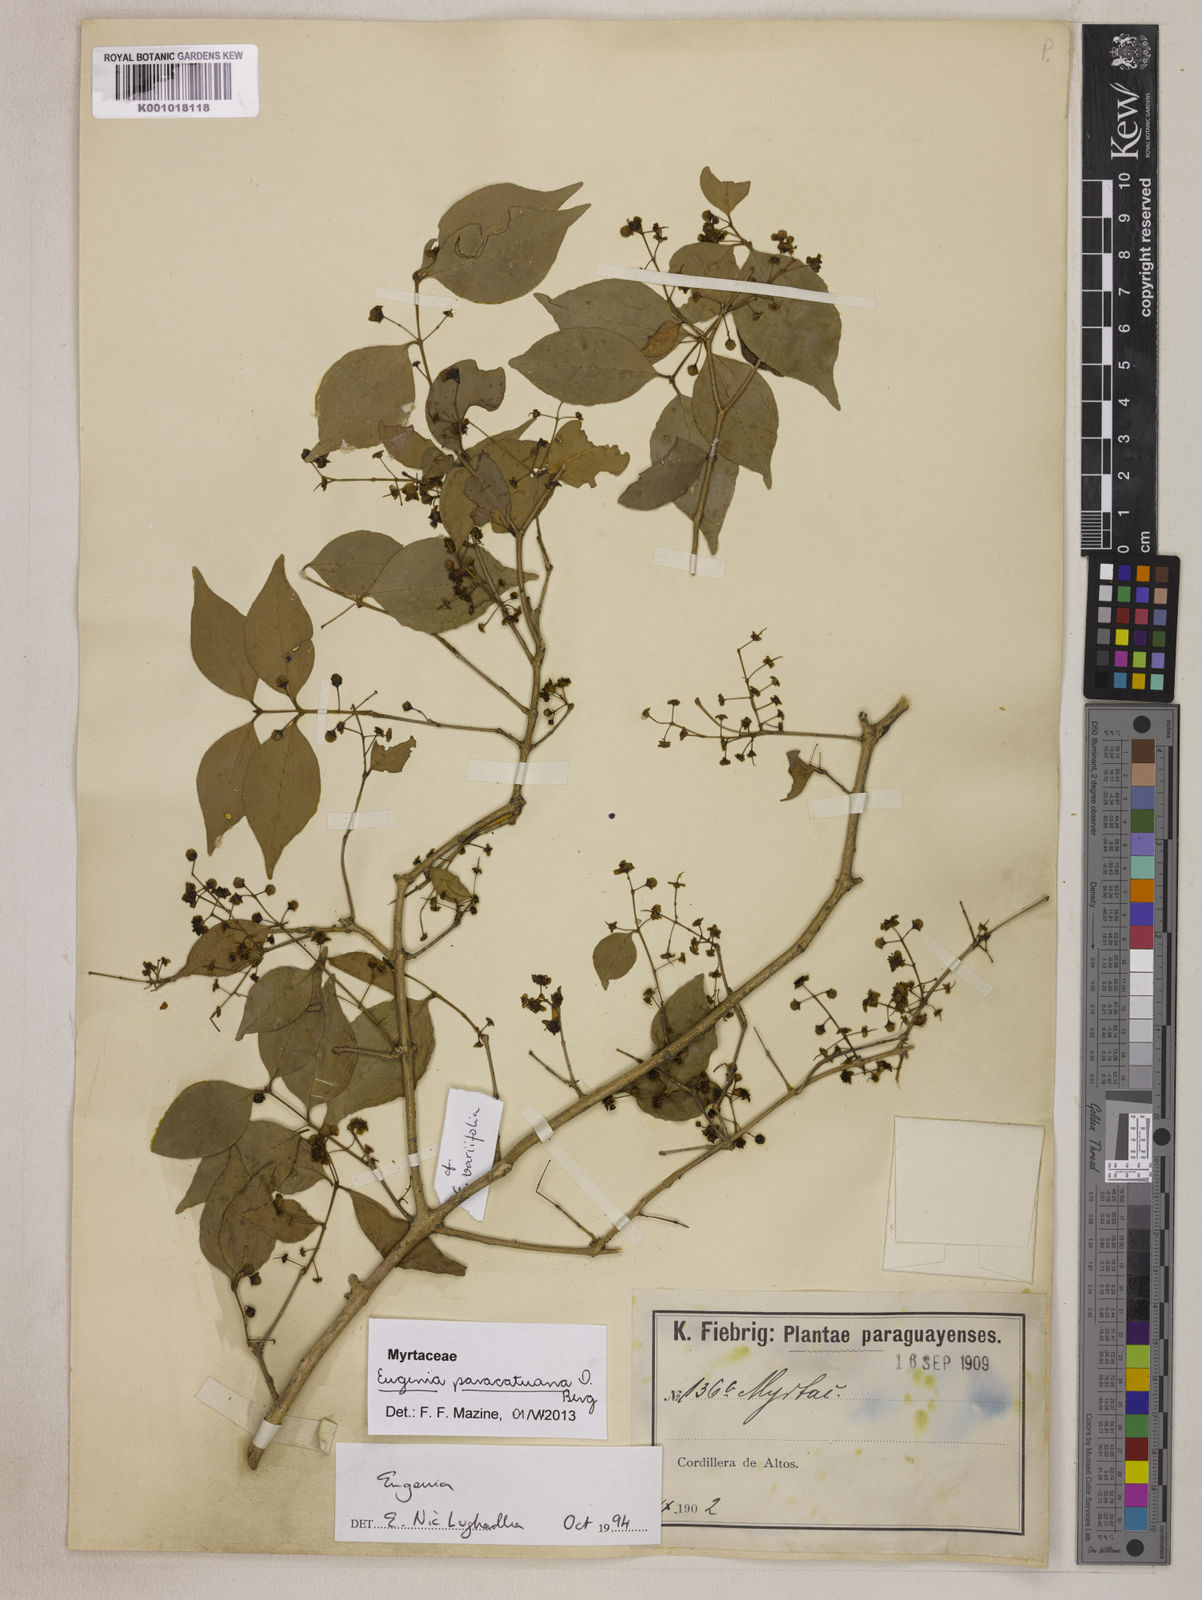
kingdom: Plantae
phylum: Tracheophyta
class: Magnoliopsida
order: Myrtales
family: Myrtaceae
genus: Eugenia
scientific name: Eugenia moraviana
